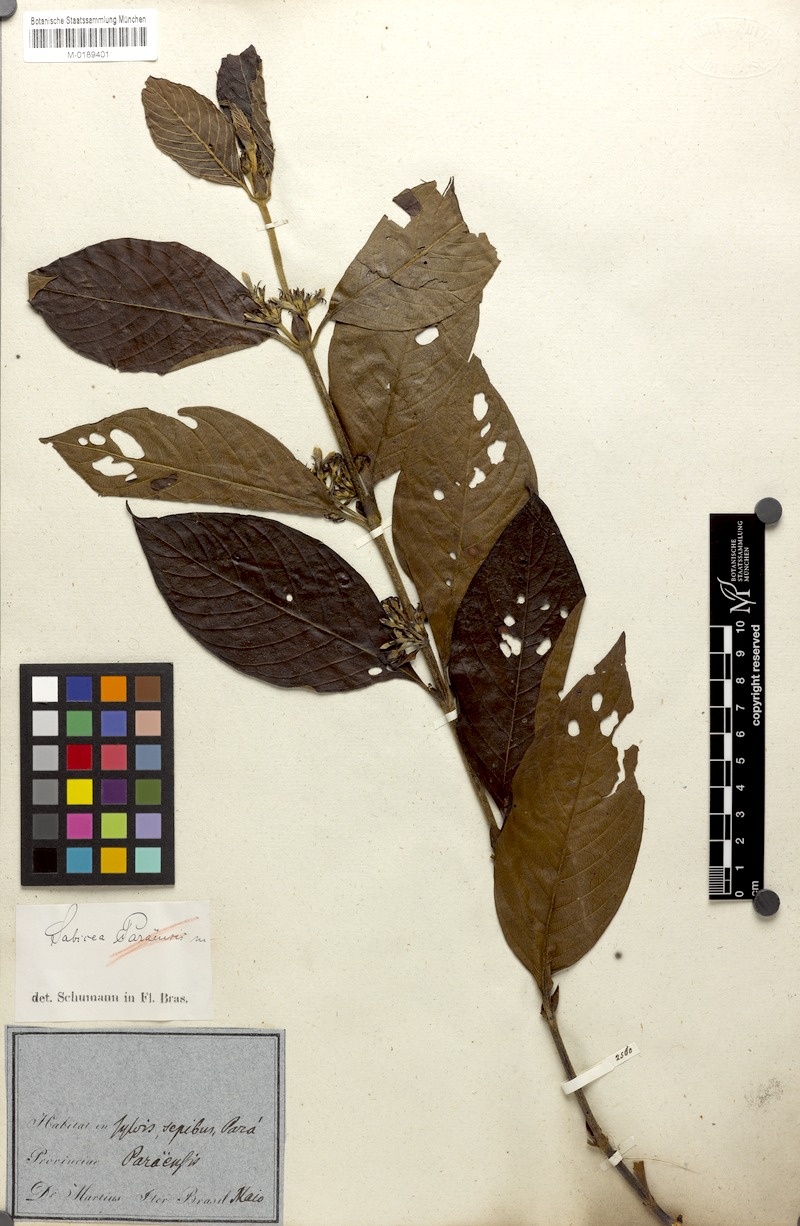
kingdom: Plantae
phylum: Tracheophyta
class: Magnoliopsida
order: Gentianales
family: Rubiaceae
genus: Sabicea
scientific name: Sabicea panamensis
